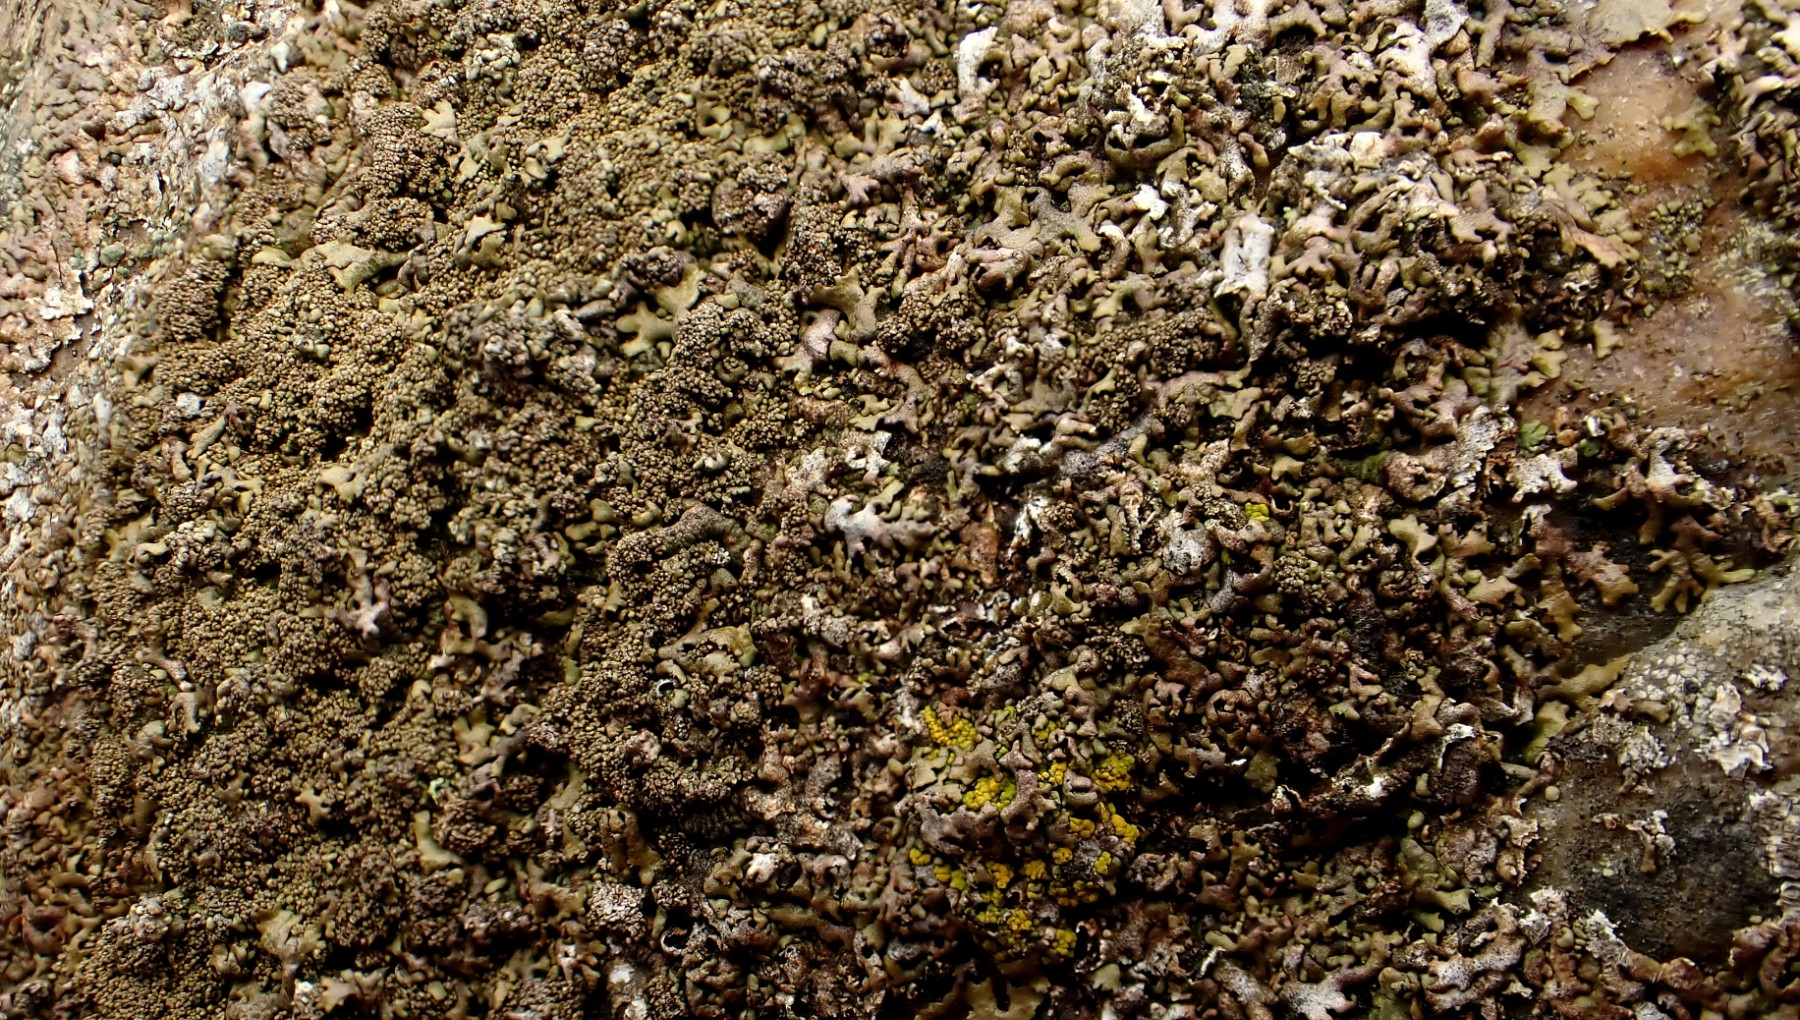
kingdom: Fungi
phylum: Ascomycota
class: Lecanoromycetes
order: Lecanorales
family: Parmeliaceae
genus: Xanthoparmelia
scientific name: Xanthoparmelia verruculifera
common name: småknoppet skållav
